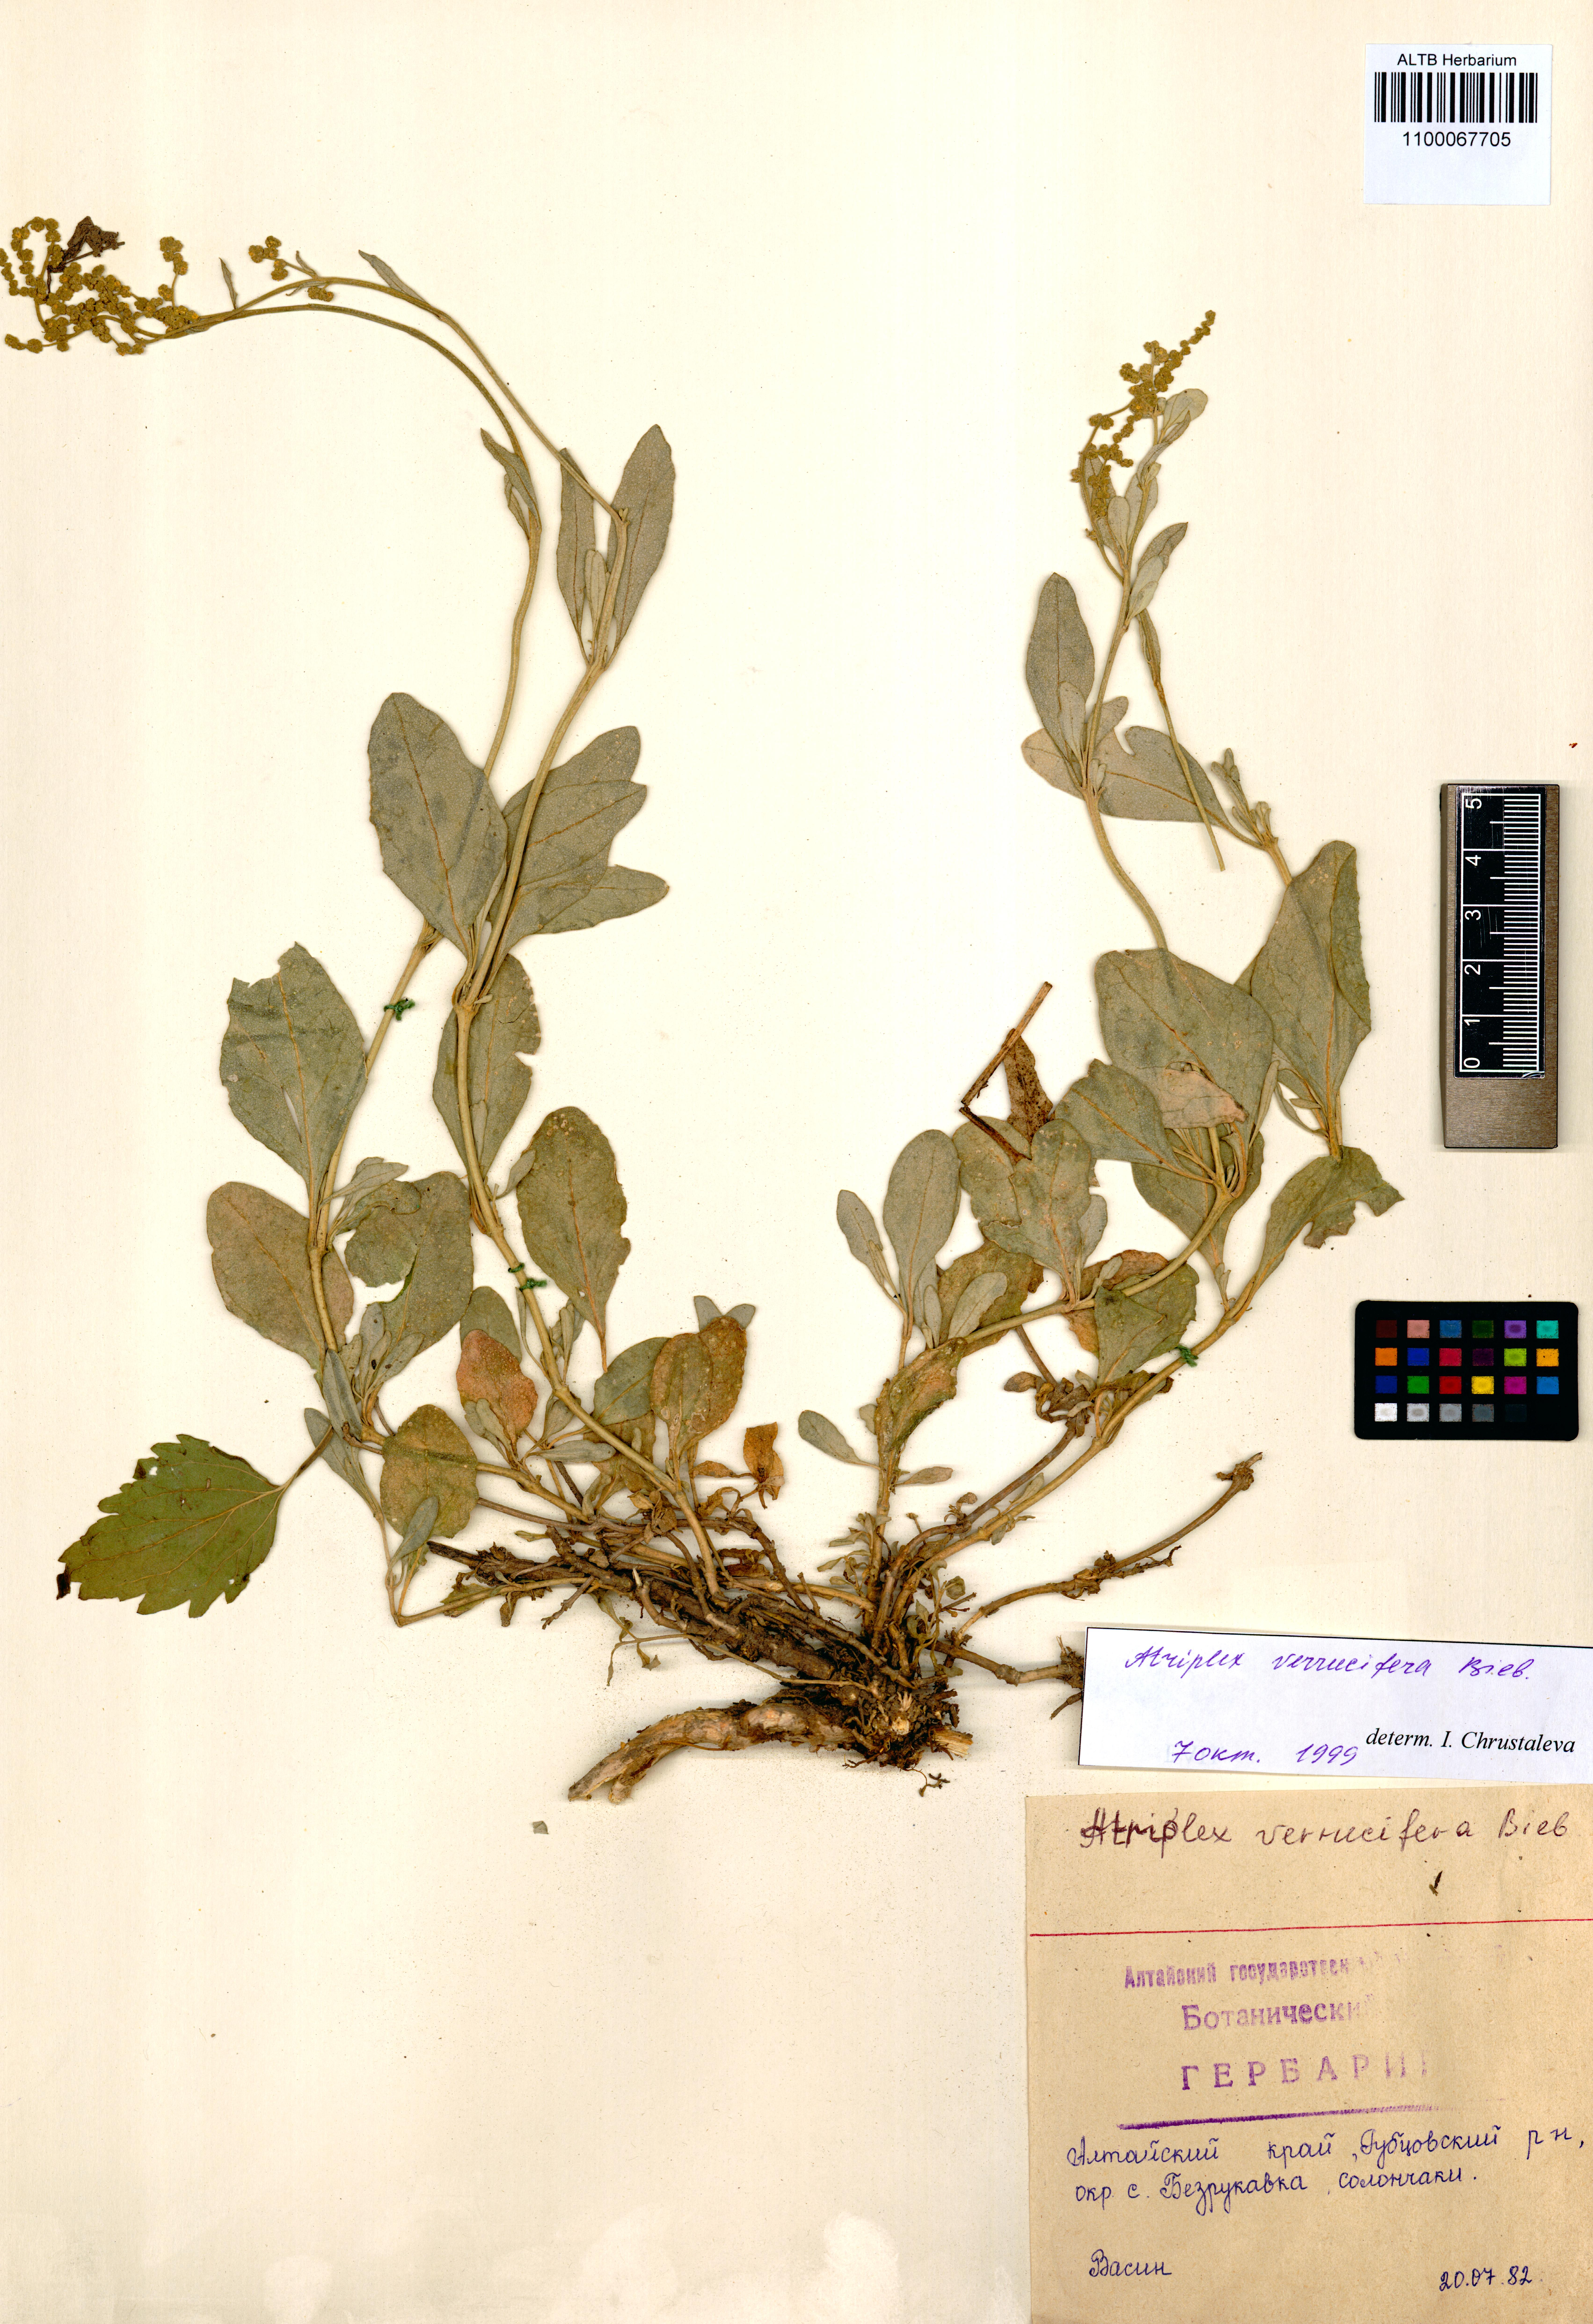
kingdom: Plantae
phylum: Tracheophyta
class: Magnoliopsida
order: Caryophyllales
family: Amaranthaceae
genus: Halimione
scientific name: Halimione verrucifera
